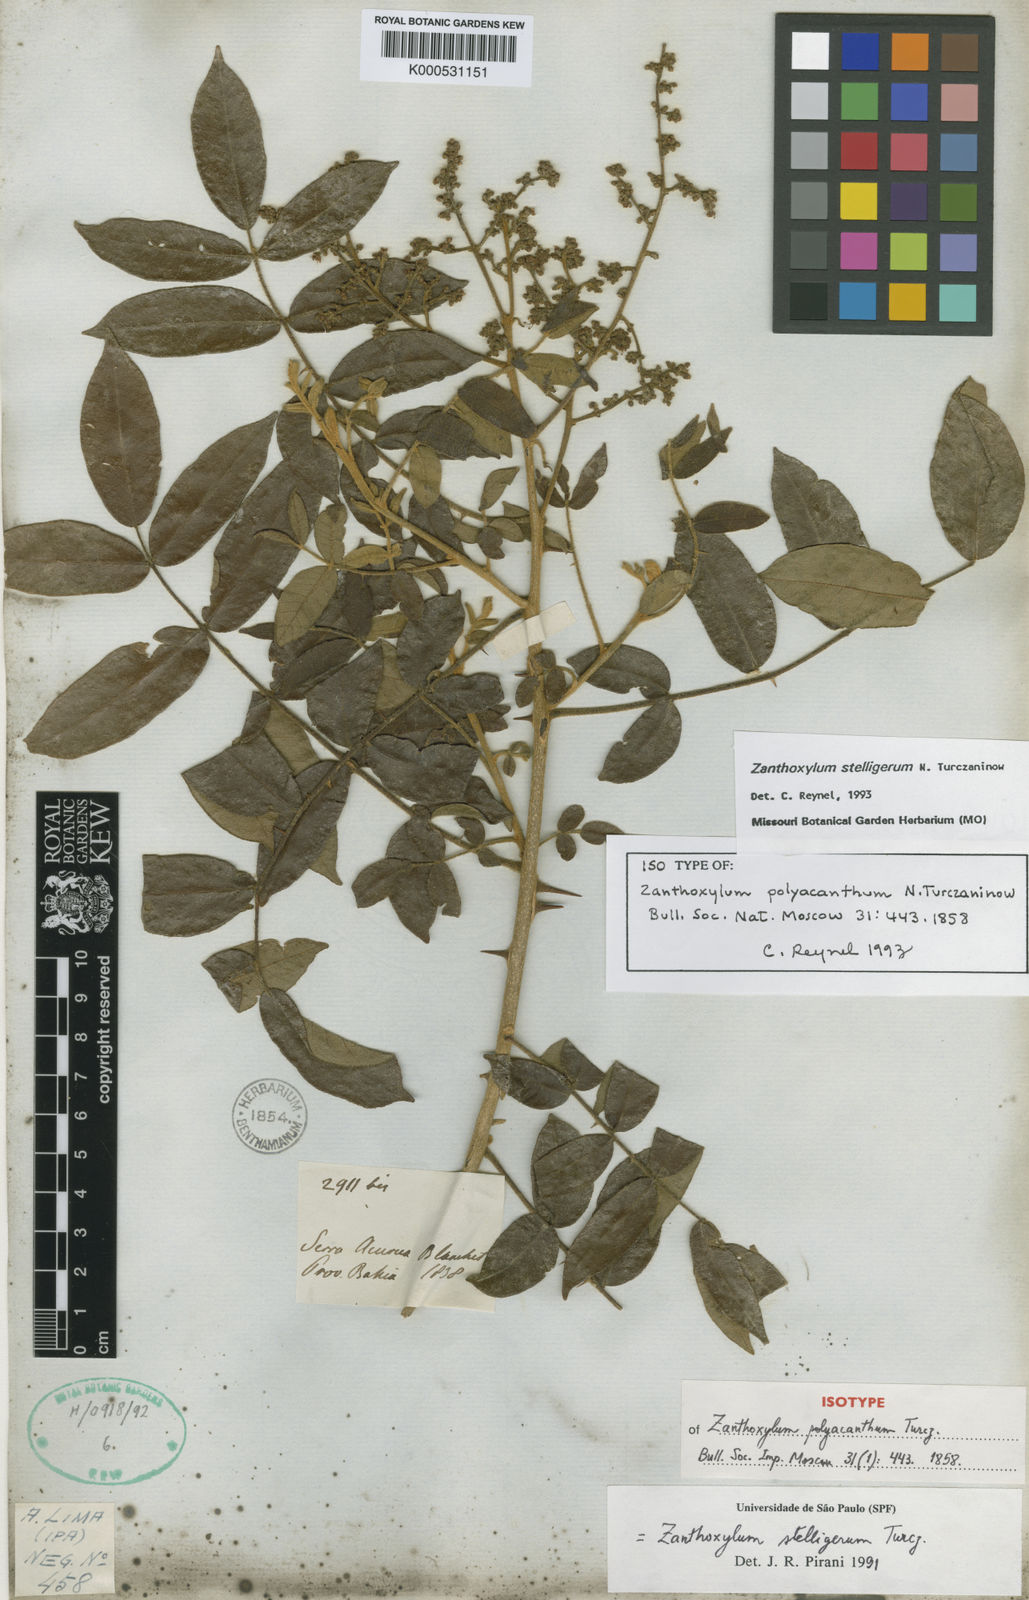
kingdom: Plantae
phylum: Tracheophyta
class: Magnoliopsida
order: Sapindales
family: Rutaceae
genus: Zanthoxylum
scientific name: Zanthoxylum stelligerum
